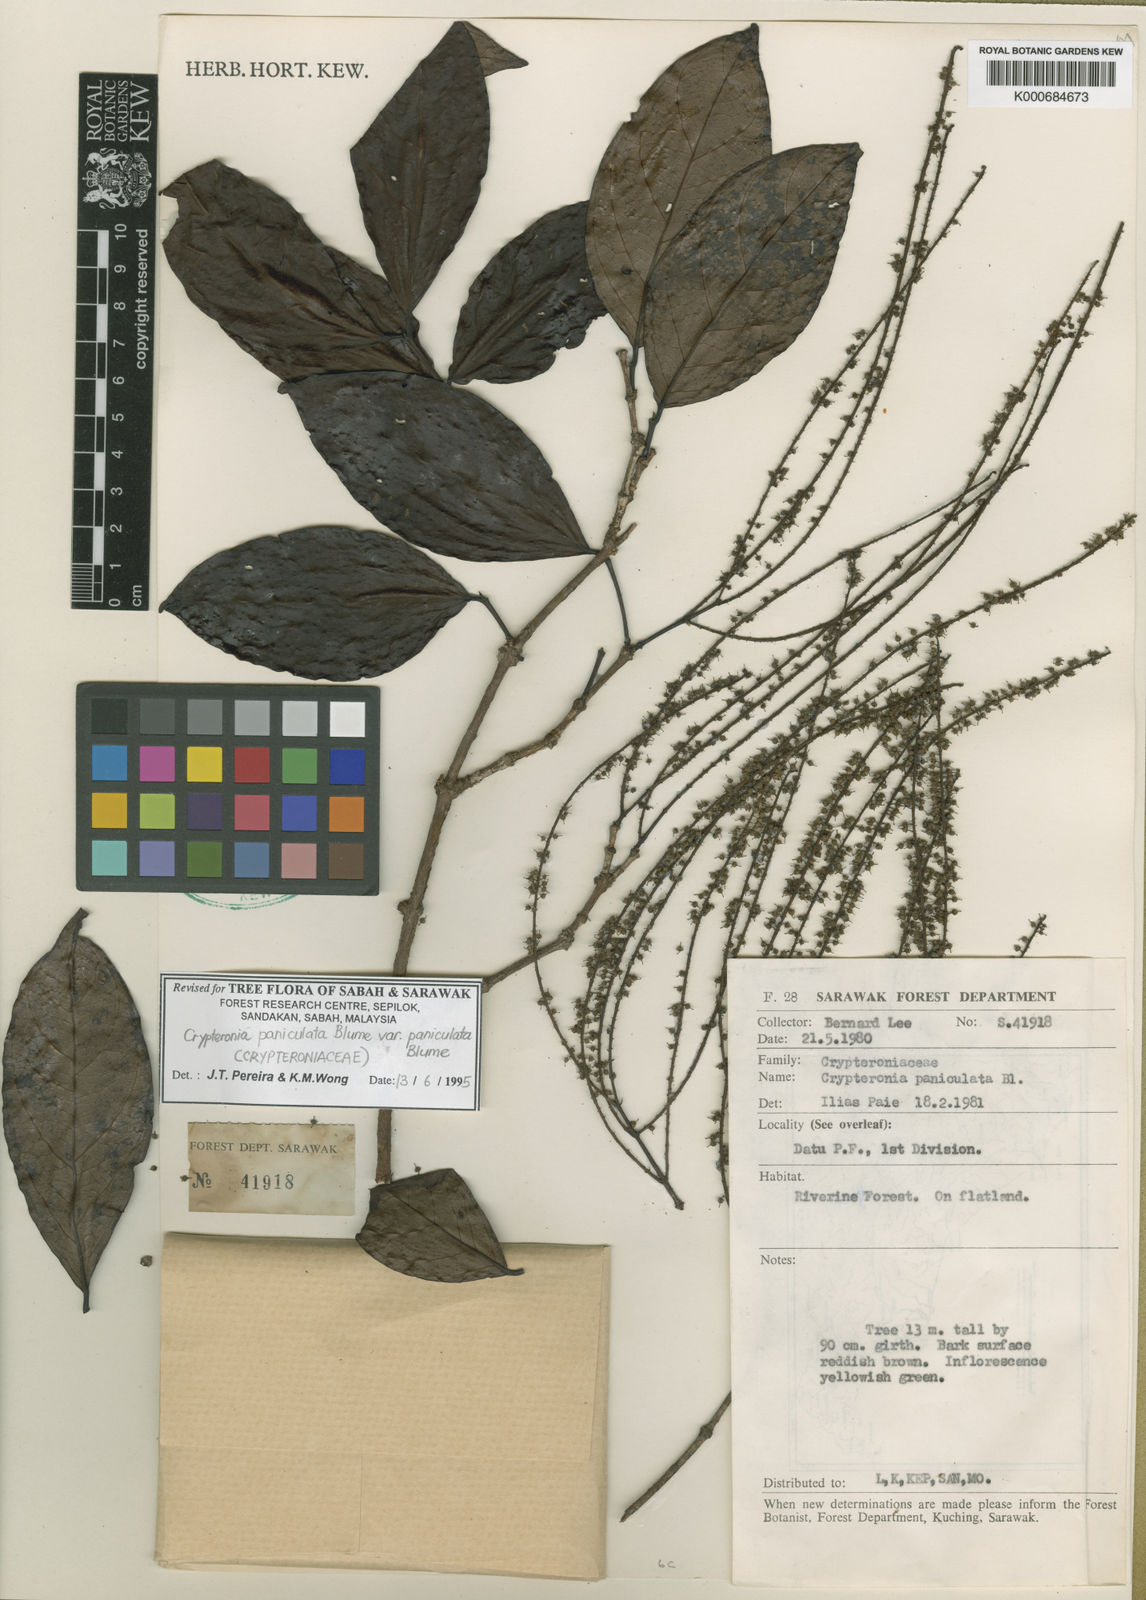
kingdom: Plantae
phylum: Tracheophyta
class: Magnoliopsida
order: Myrtales
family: Crypteroniaceae
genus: Crypteronia
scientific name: Crypteronia paniculata
